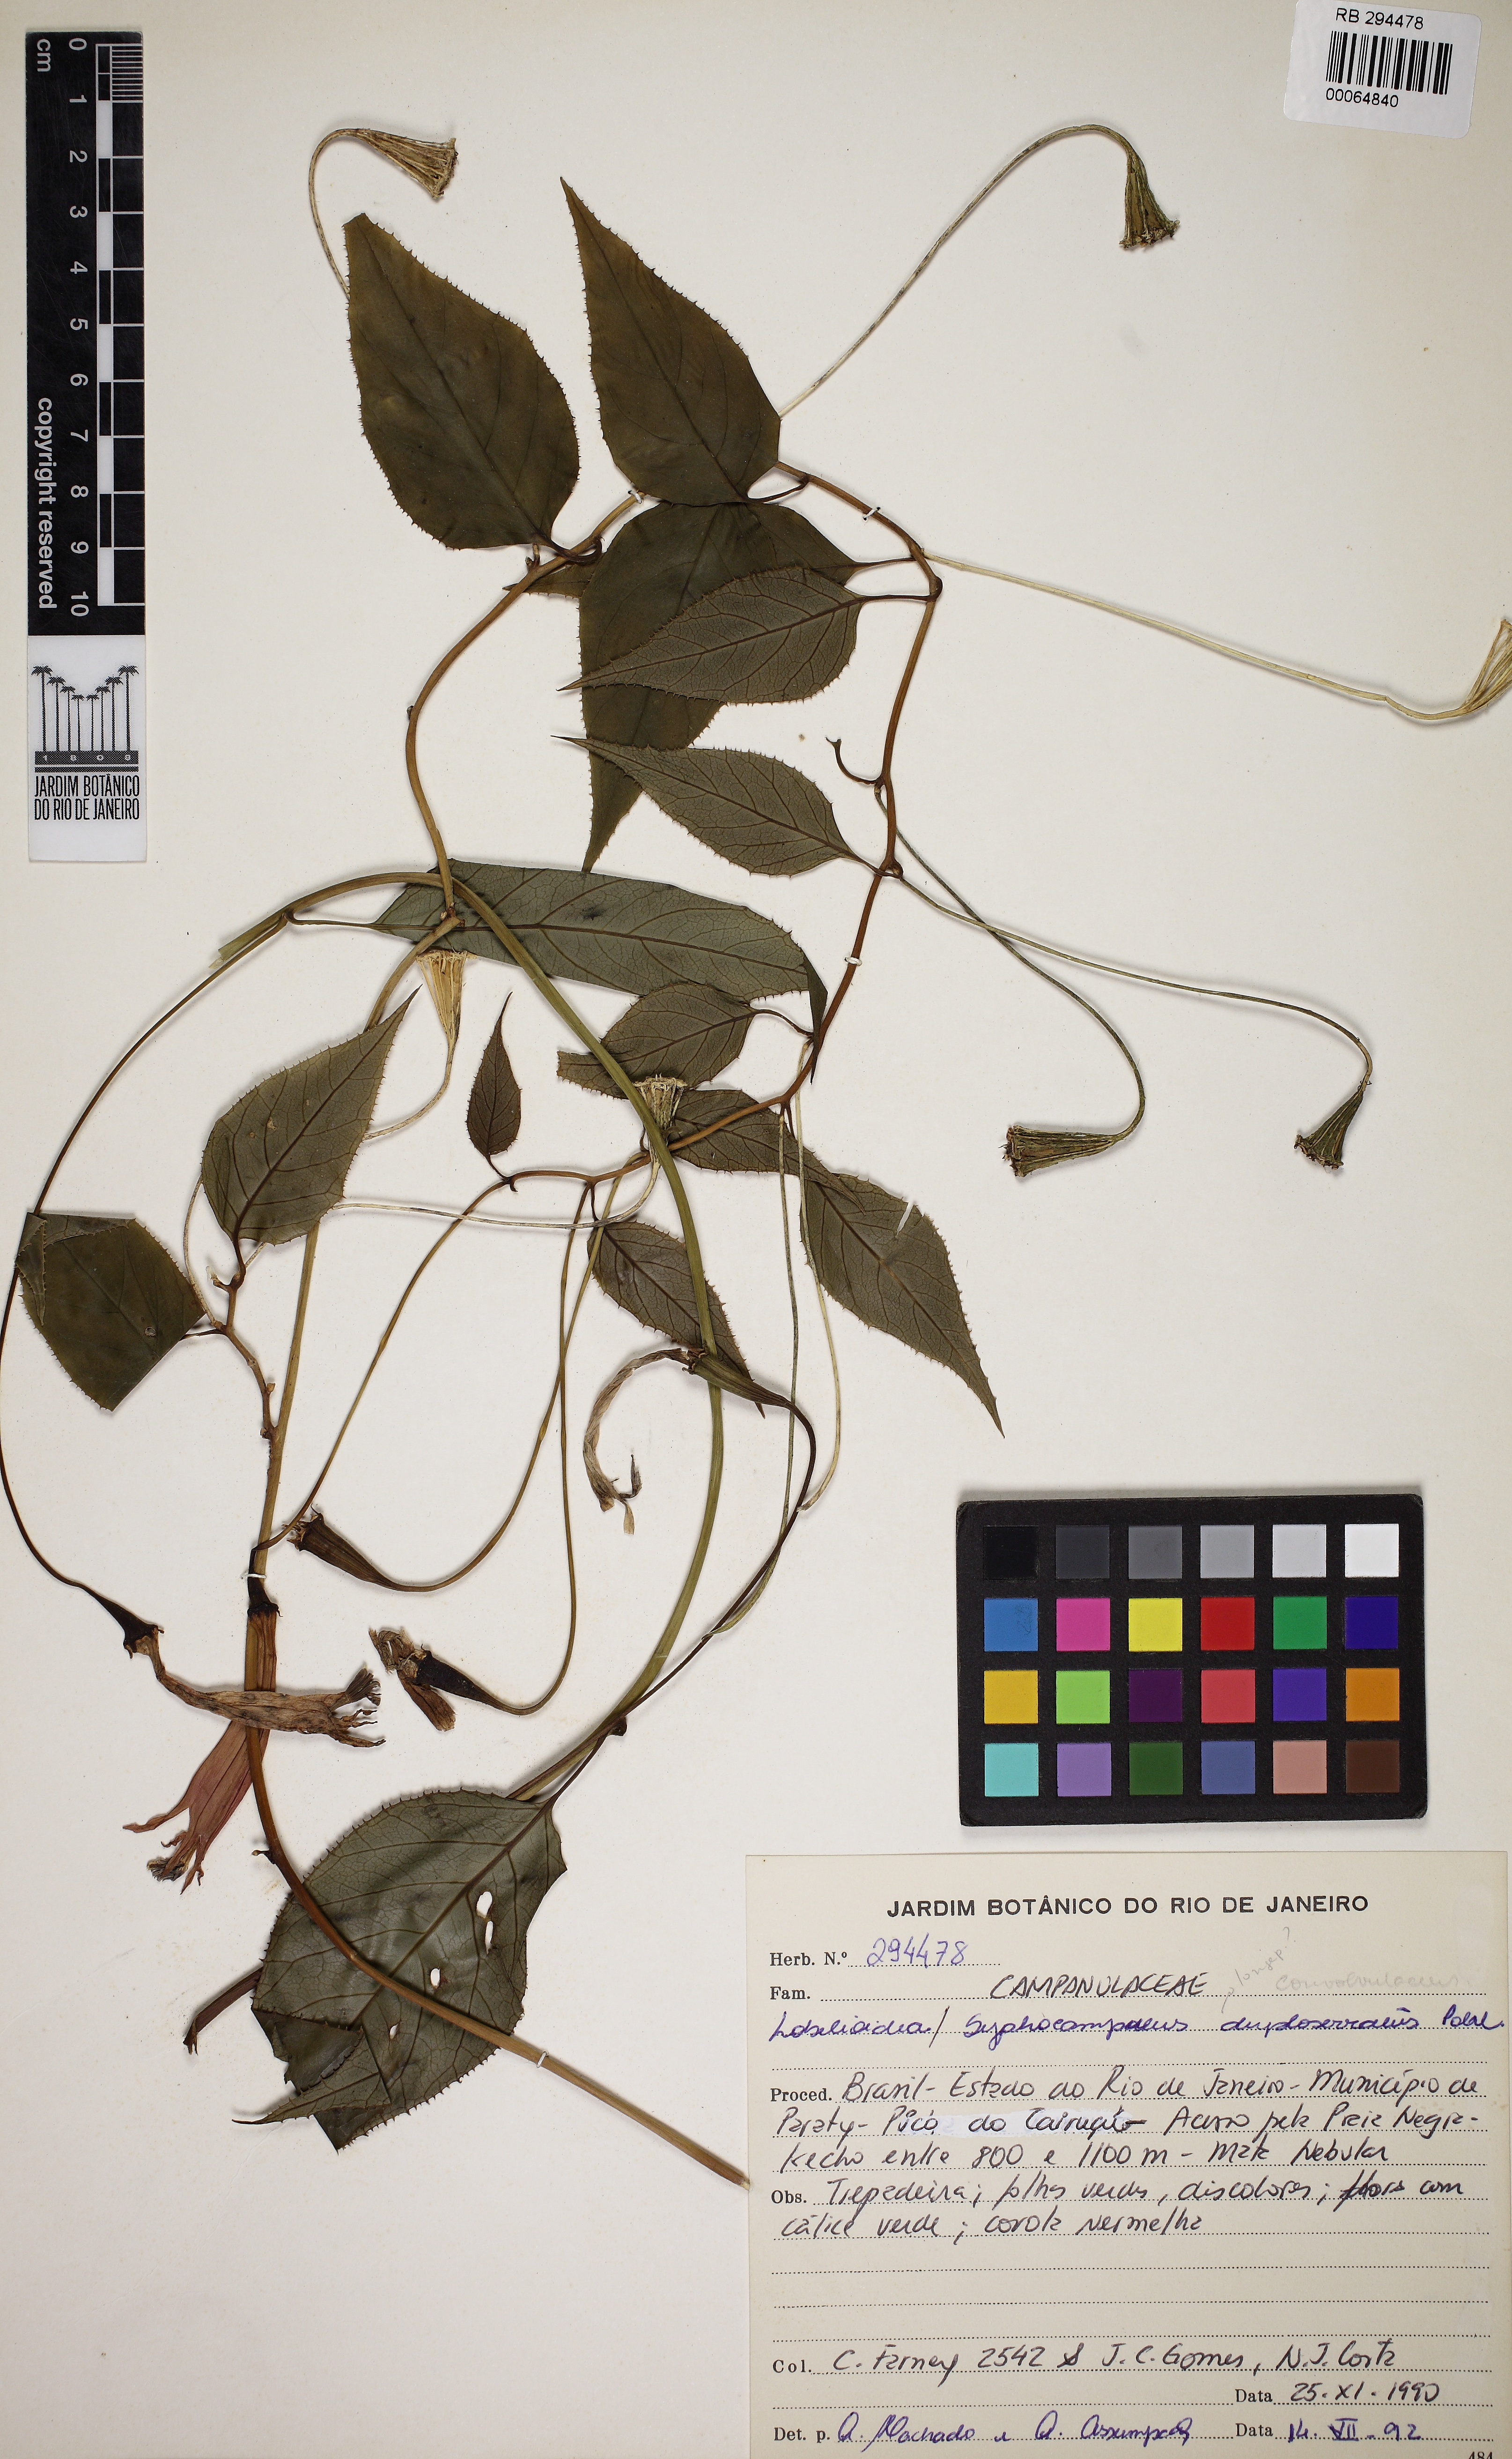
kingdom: Plantae
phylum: Tracheophyta
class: Magnoliopsida
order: Asterales
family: Campanulaceae
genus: Siphocampylus
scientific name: Siphocampylus convolvulaceus
